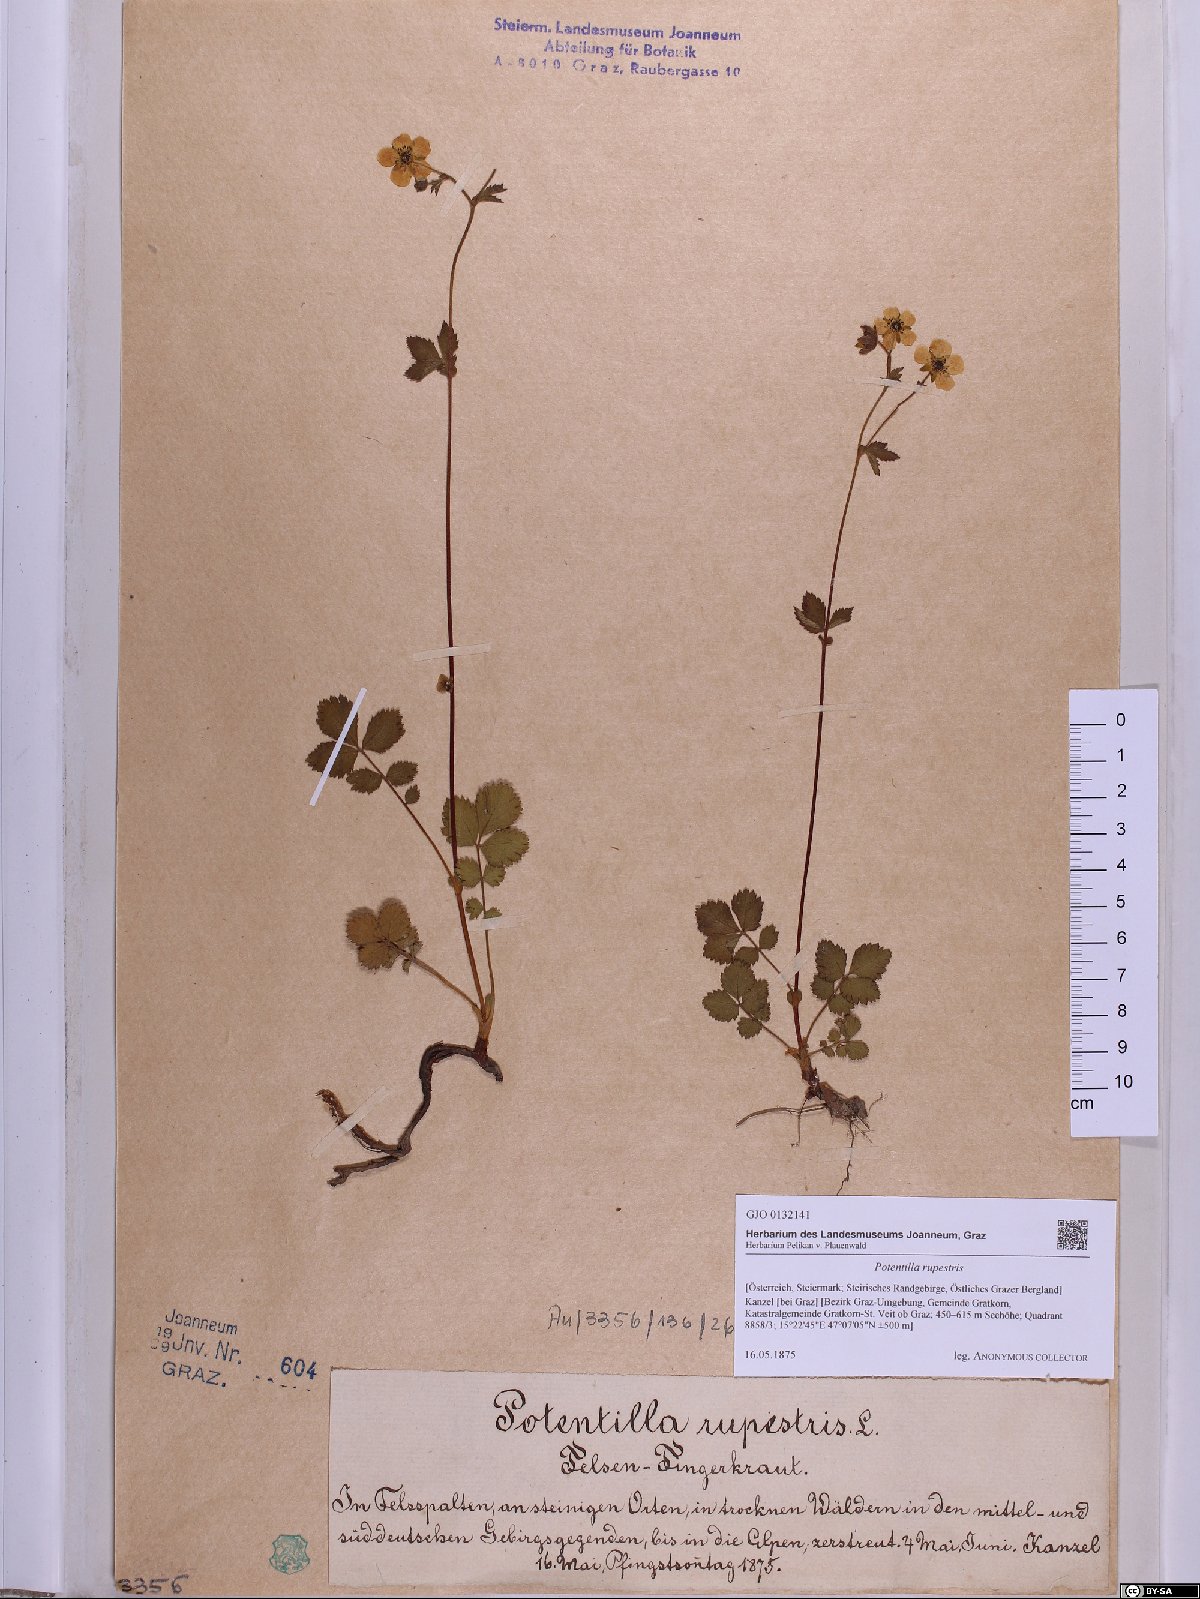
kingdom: Plantae
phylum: Tracheophyta
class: Magnoliopsida
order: Rosales
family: Rosaceae
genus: Drymocallis
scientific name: Drymocallis rupestris
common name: Rock cinquefoil
